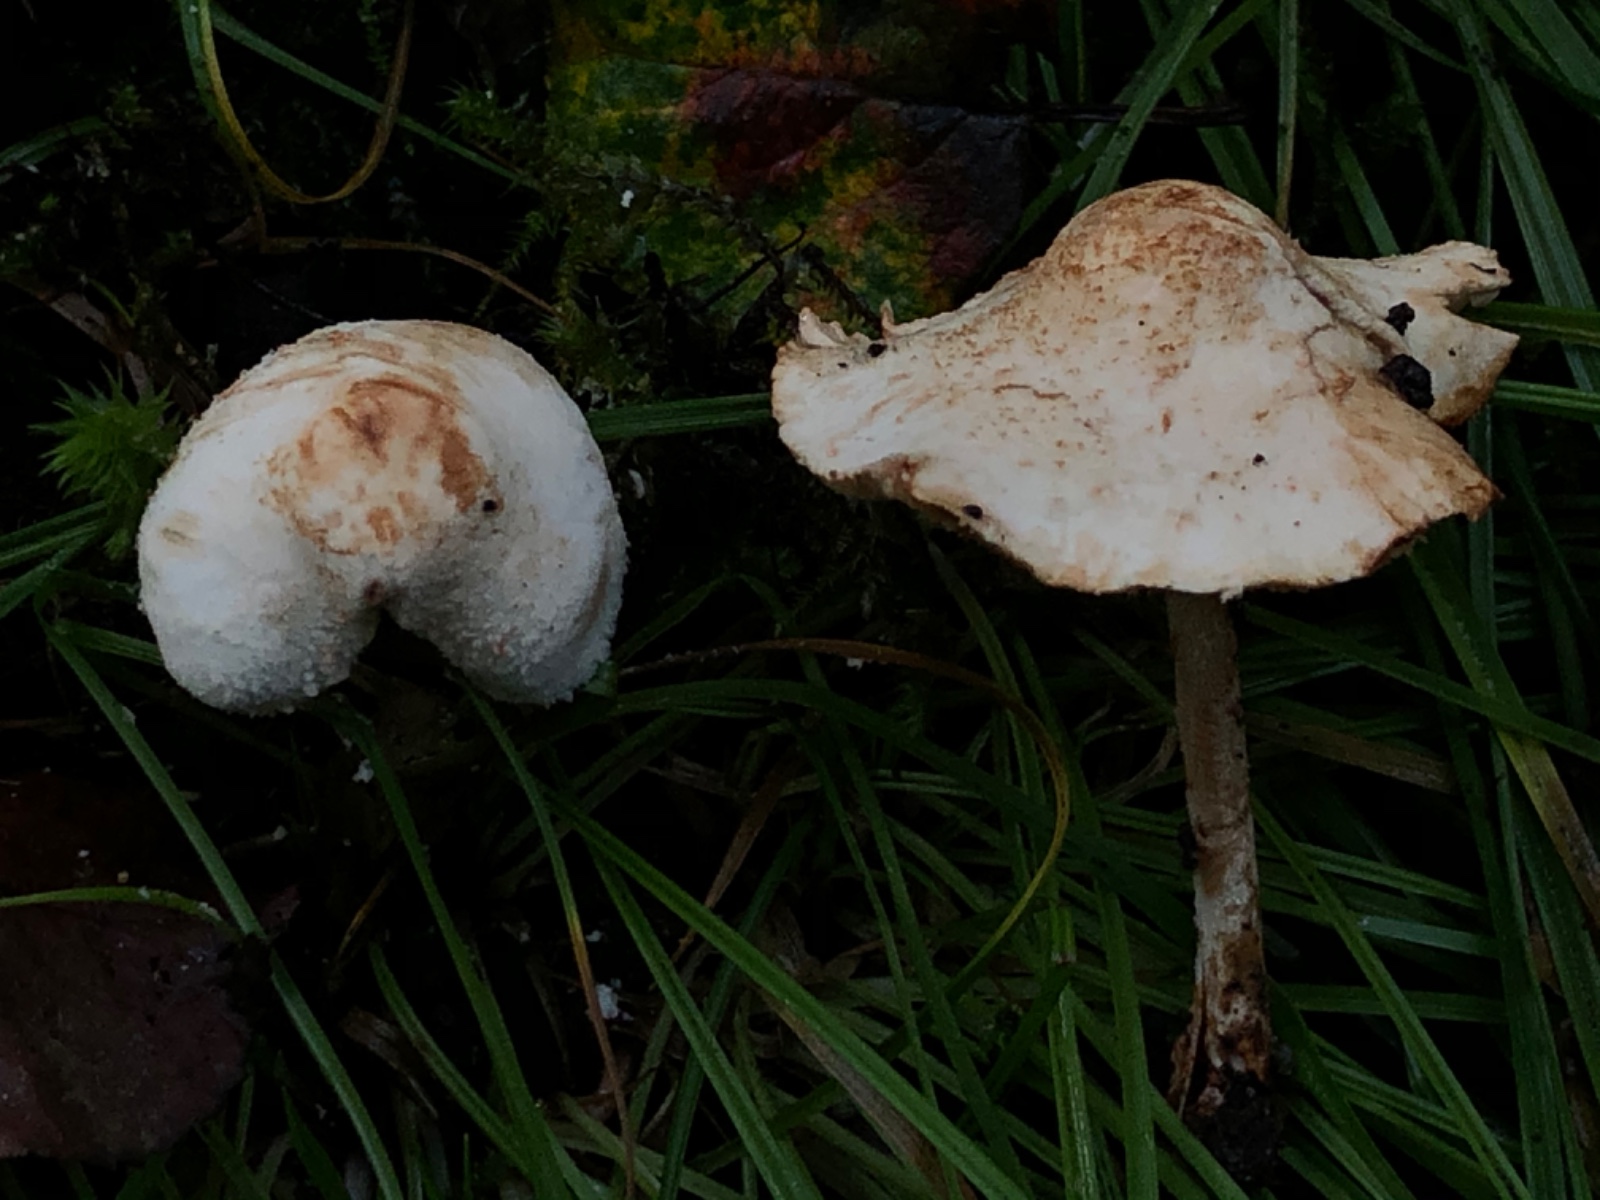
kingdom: Fungi
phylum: Basidiomycota
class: Agaricomycetes
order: Agaricales
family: Agaricaceae
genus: Cystolepiota
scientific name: Cystolepiota hetieri
